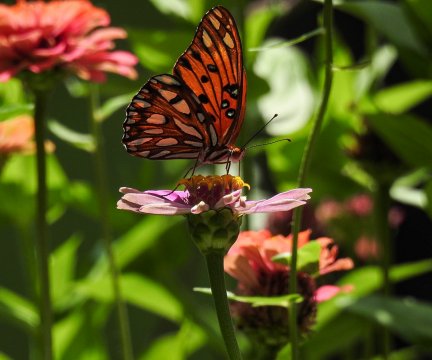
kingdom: Animalia
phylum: Arthropoda
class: Insecta
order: Lepidoptera
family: Nymphalidae
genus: Dione
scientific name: Dione vanillae
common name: Gulf Fritillary
